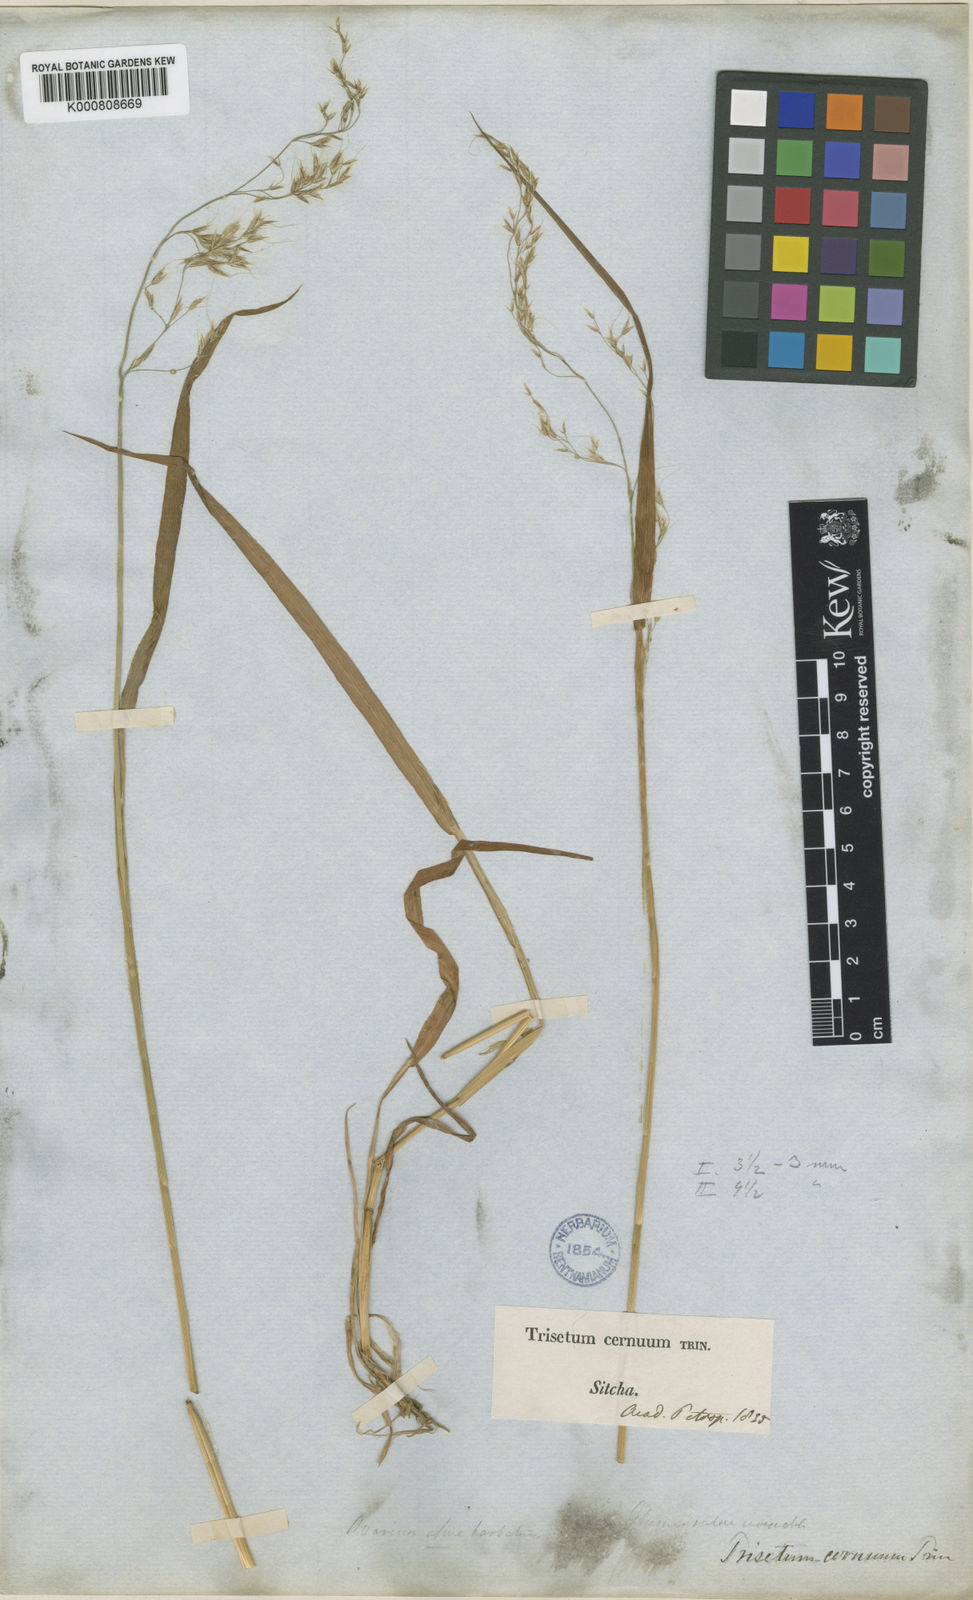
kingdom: Plantae
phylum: Tracheophyta
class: Liliopsida
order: Poales
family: Poaceae
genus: Graphephorum
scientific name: Graphephorum cernuum
